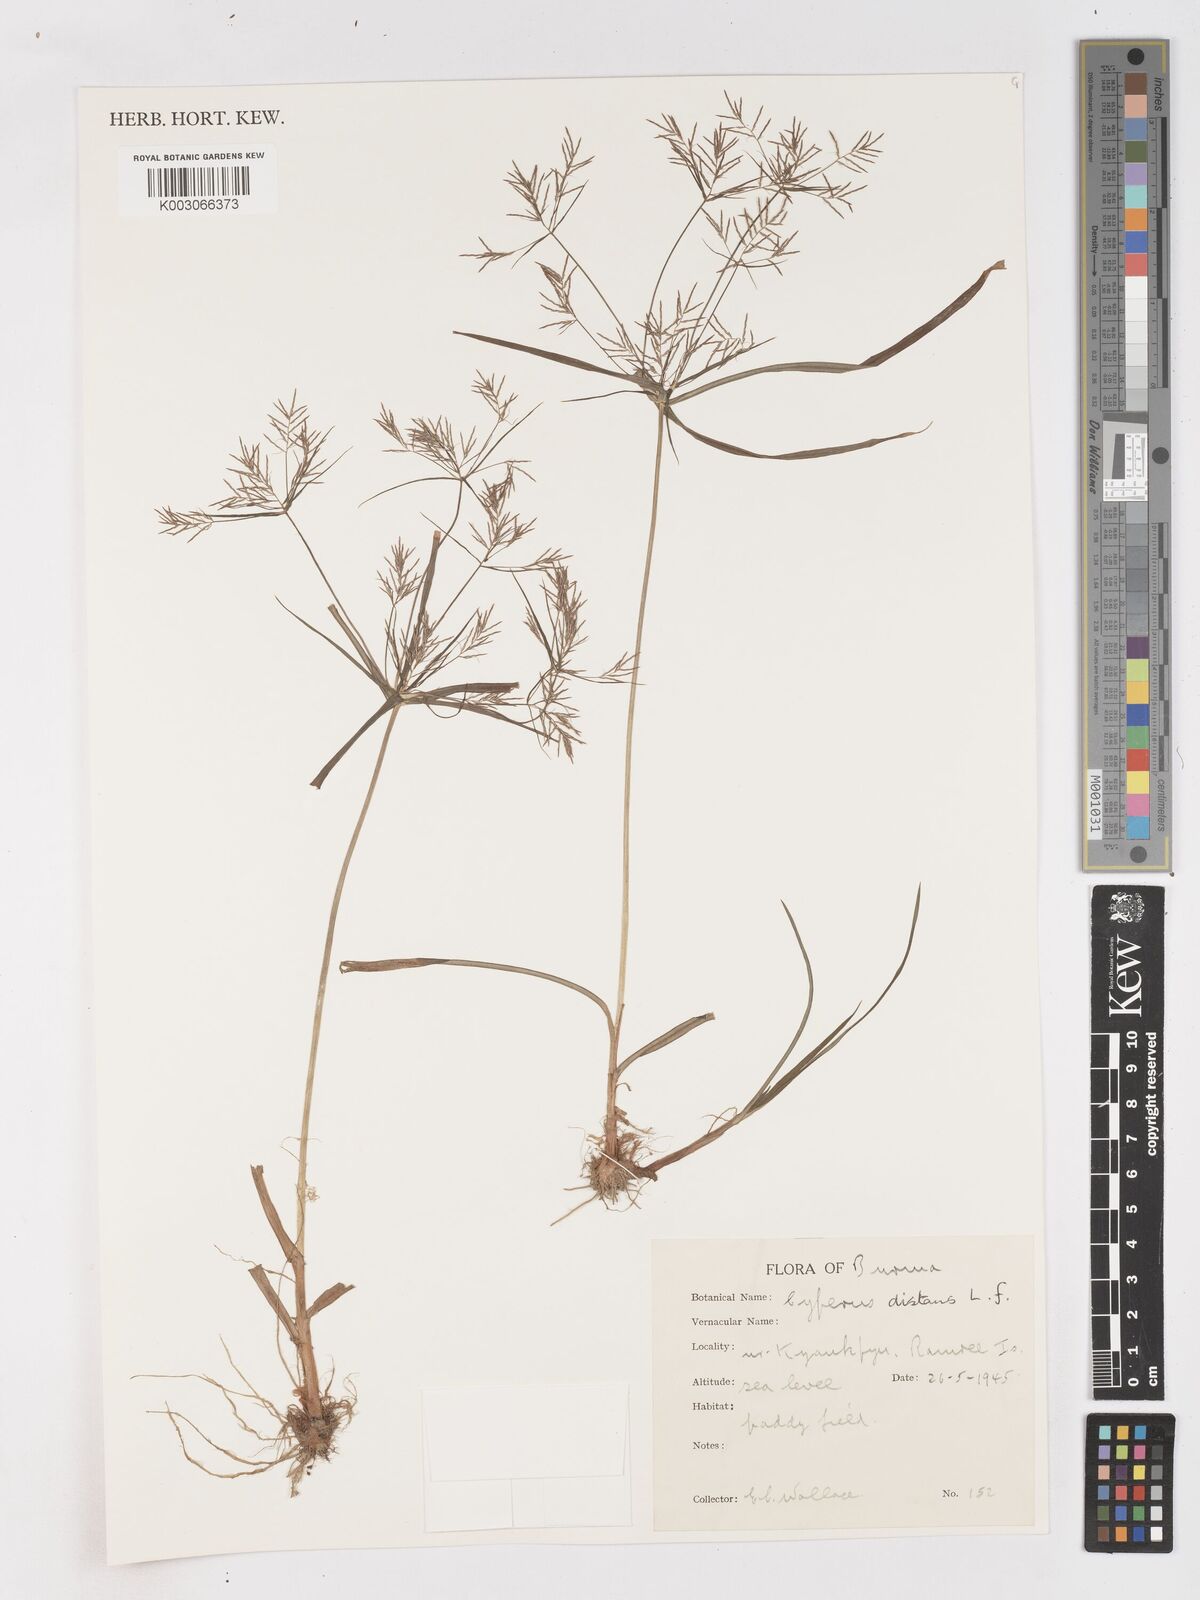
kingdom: Plantae
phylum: Tracheophyta
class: Liliopsida
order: Poales
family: Cyperaceae
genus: Cyperus
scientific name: Cyperus distans
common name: Slender cyperus
